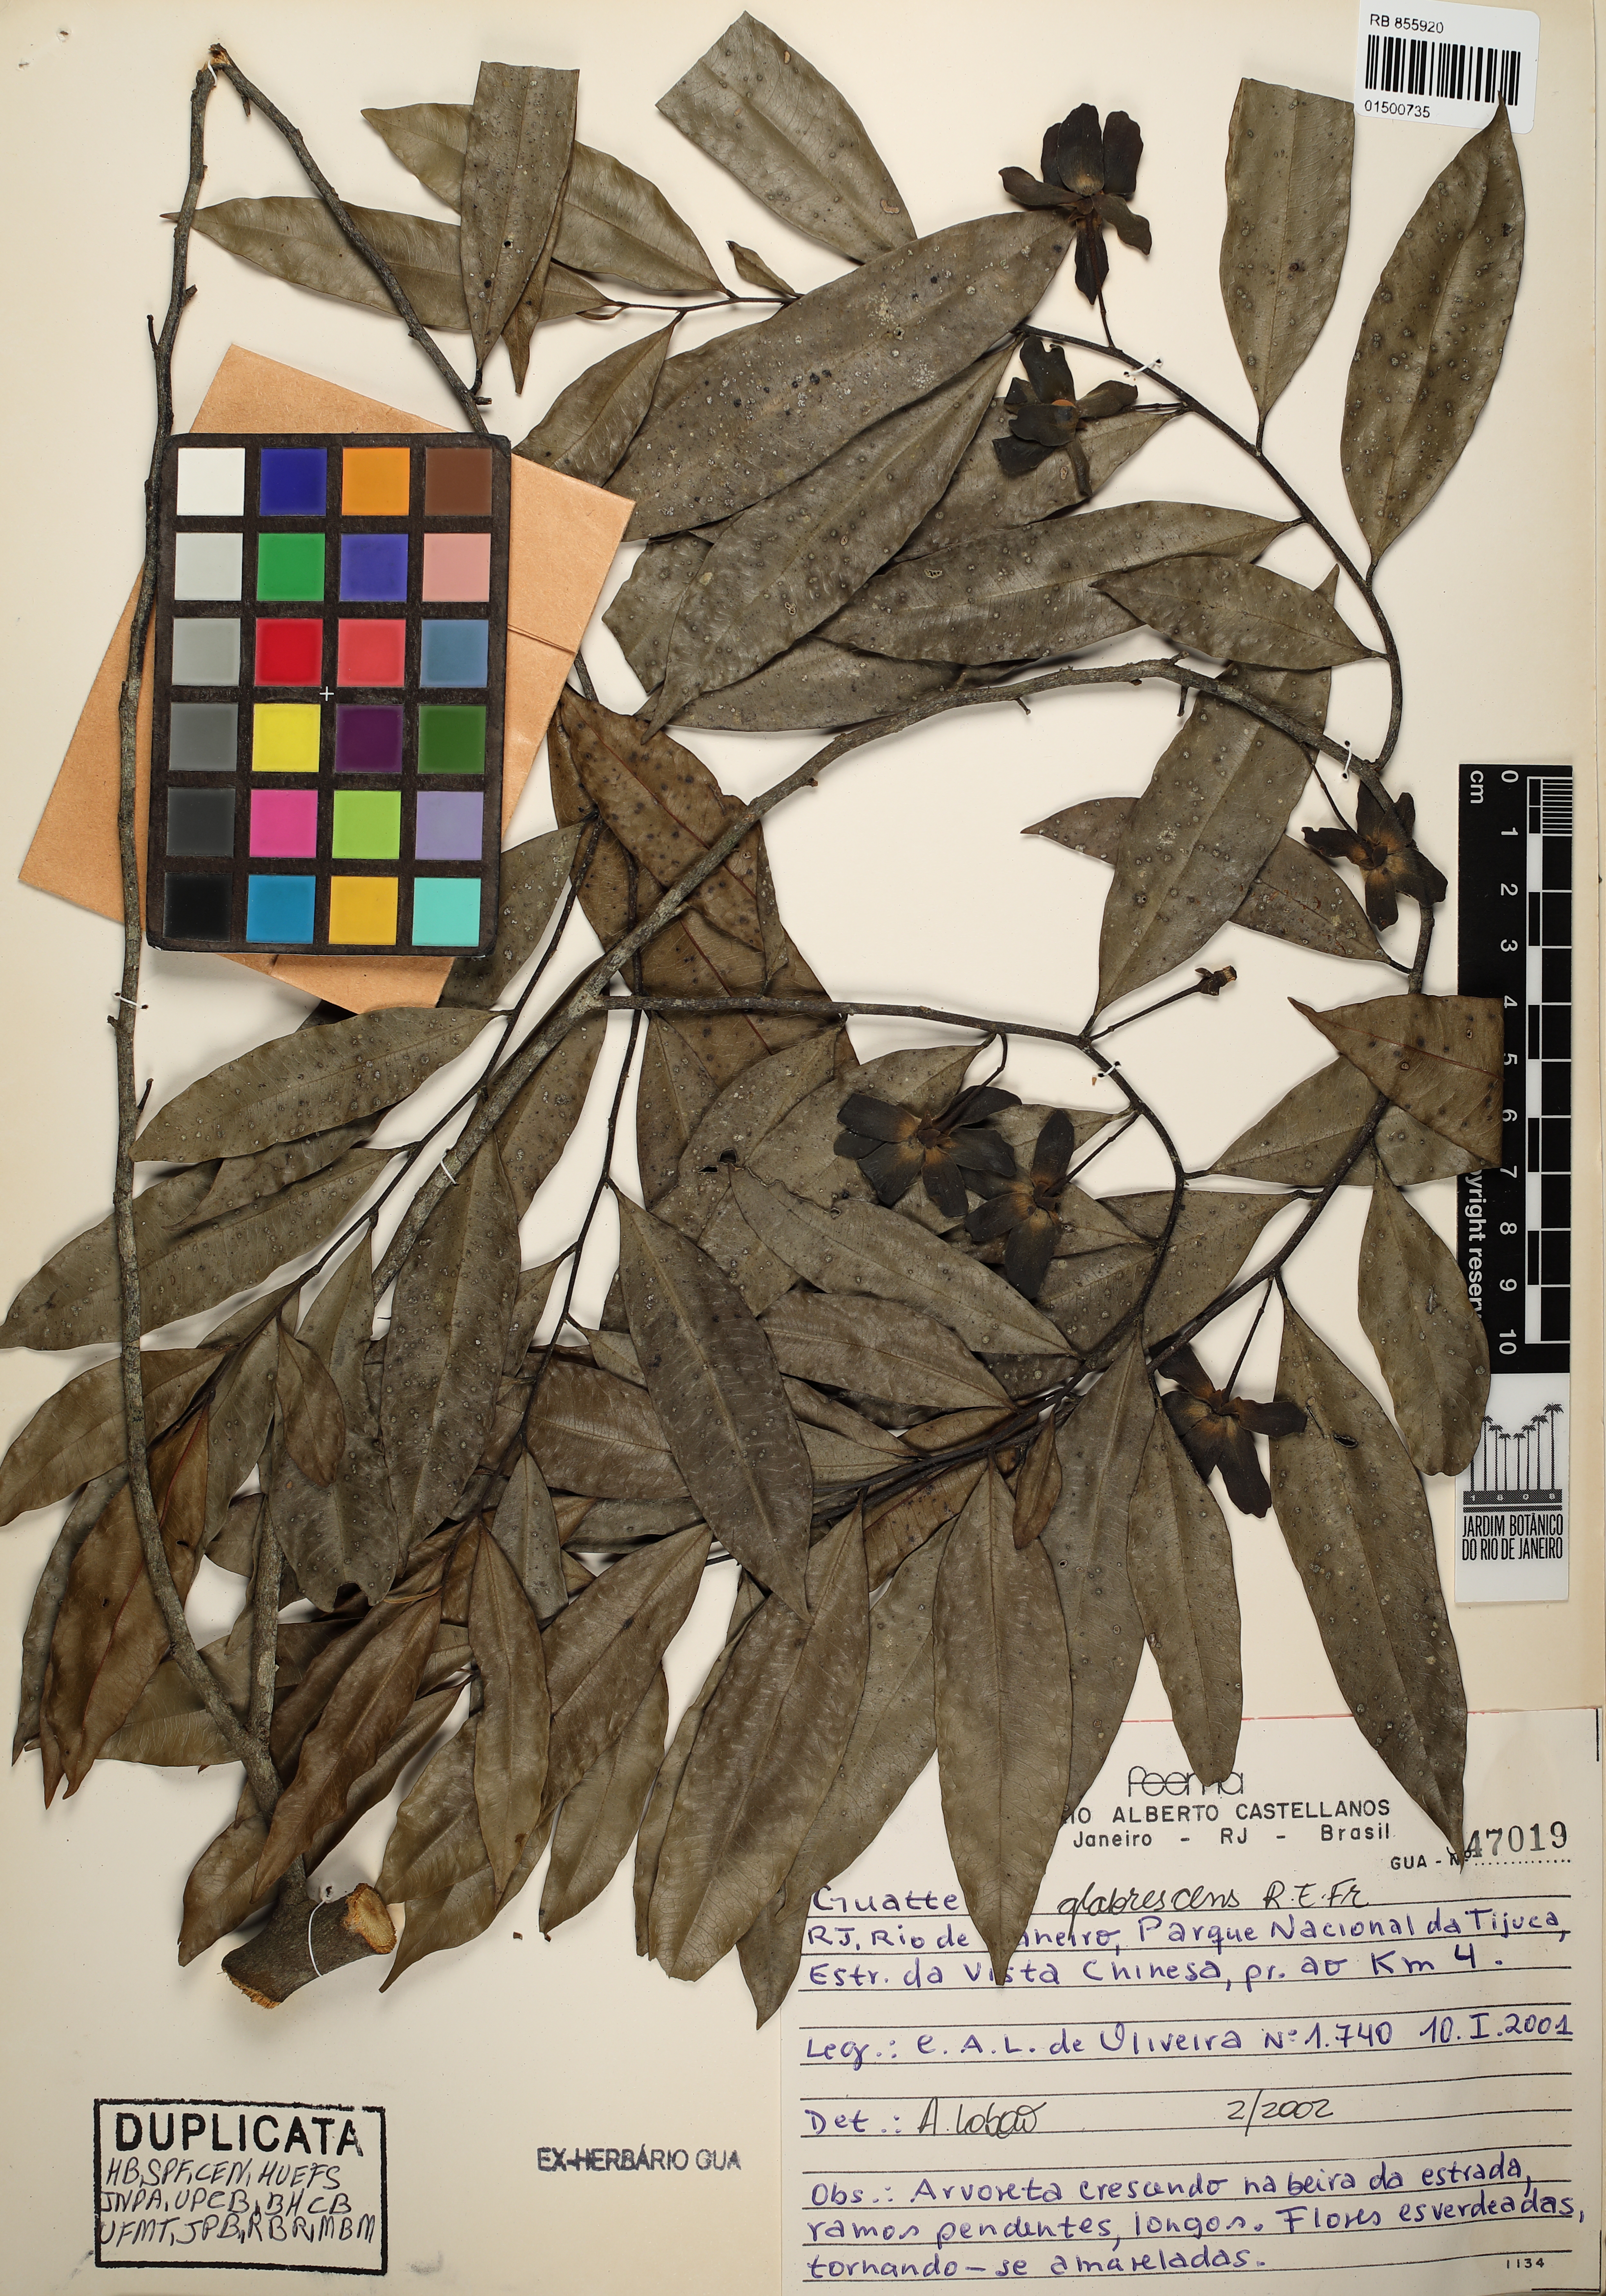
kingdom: Plantae
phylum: Tracheophyta
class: Magnoliopsida
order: Magnoliales
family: Annonaceae
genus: Guatteria
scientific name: Guatteria australis
